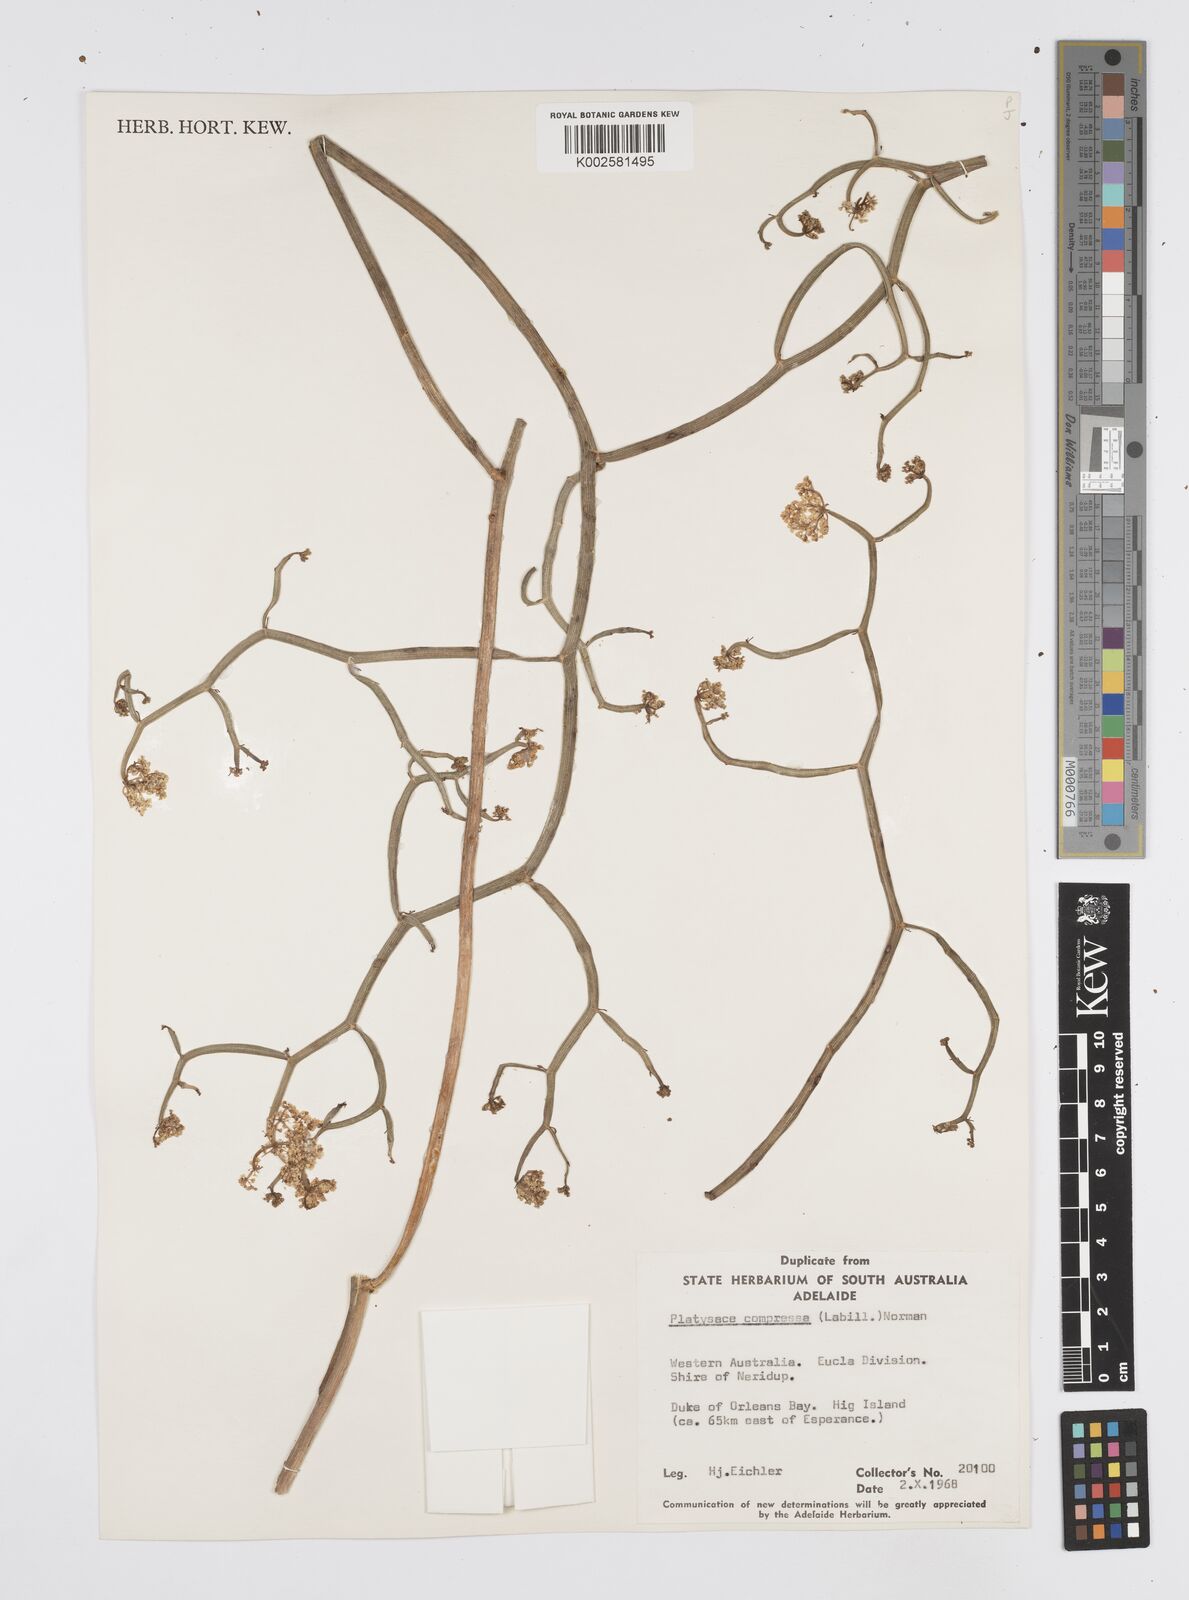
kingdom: Plantae
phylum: Tracheophyta
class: Magnoliopsida
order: Apiales
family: Apiaceae
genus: Centella
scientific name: Centella
